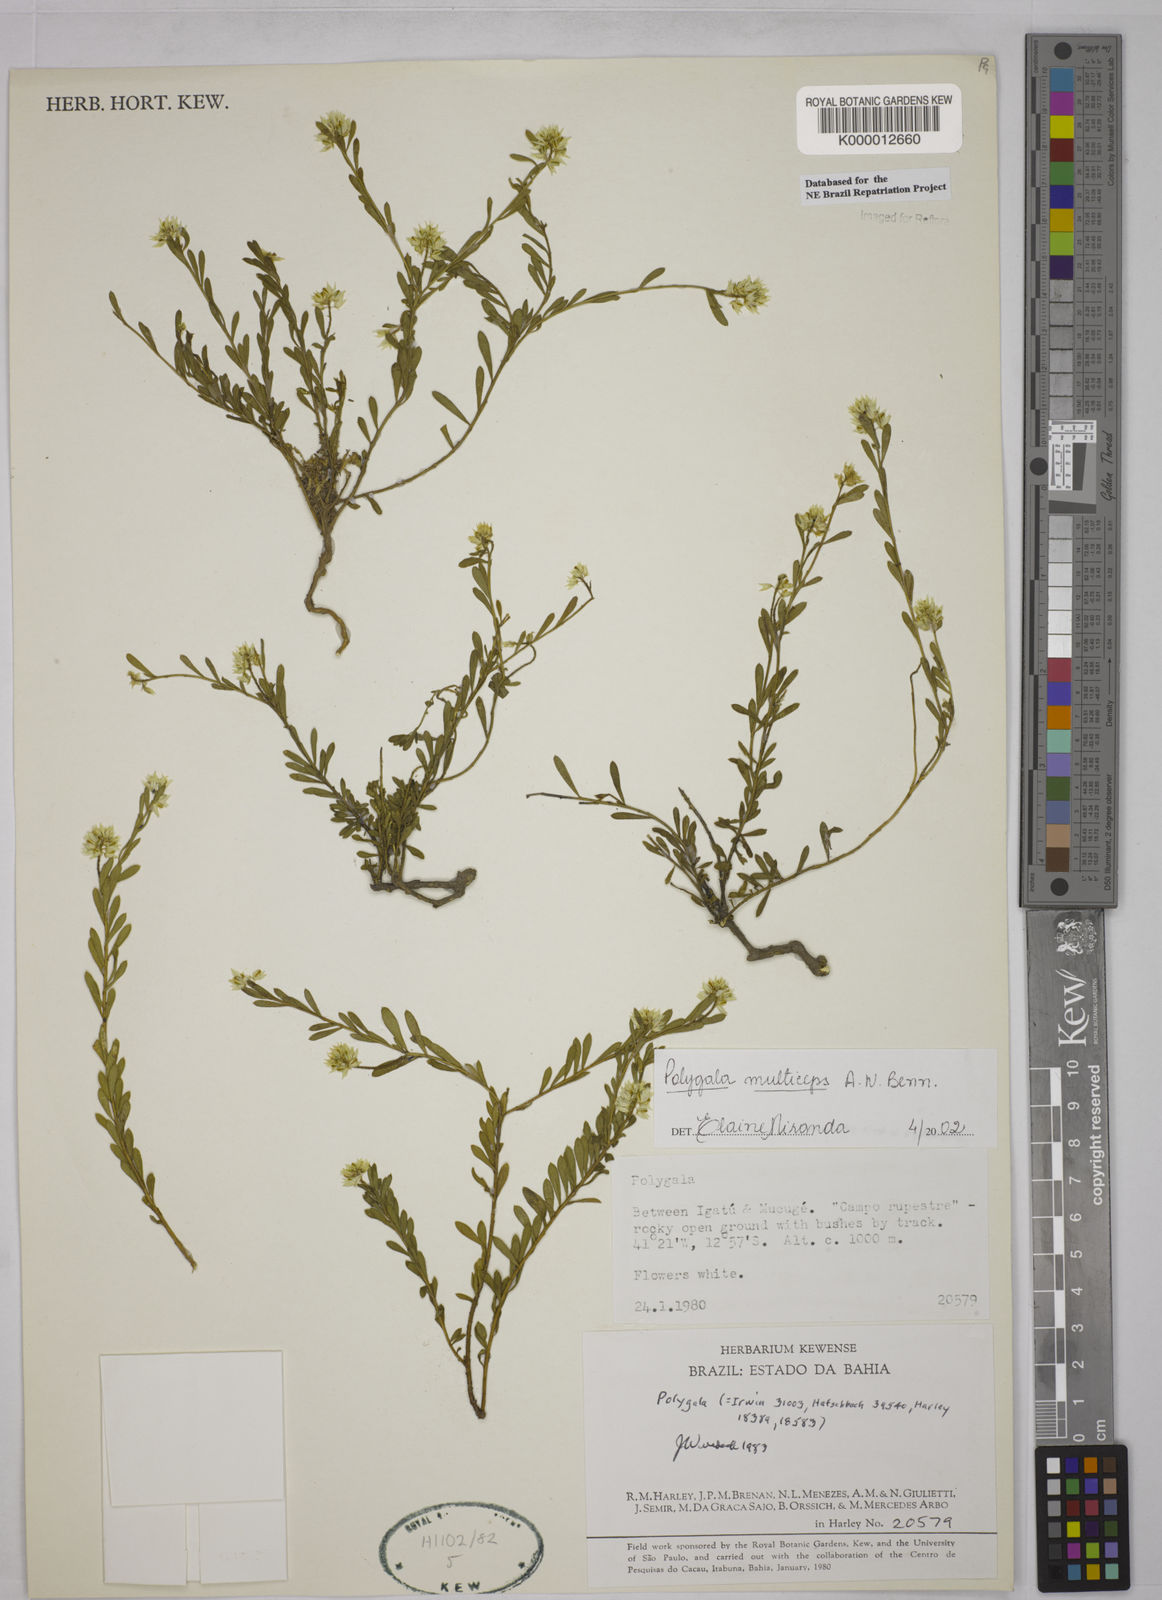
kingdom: Plantae
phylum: Tracheophyta
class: Magnoliopsida
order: Fabales
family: Polygalaceae
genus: Polygala
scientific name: Polygala
